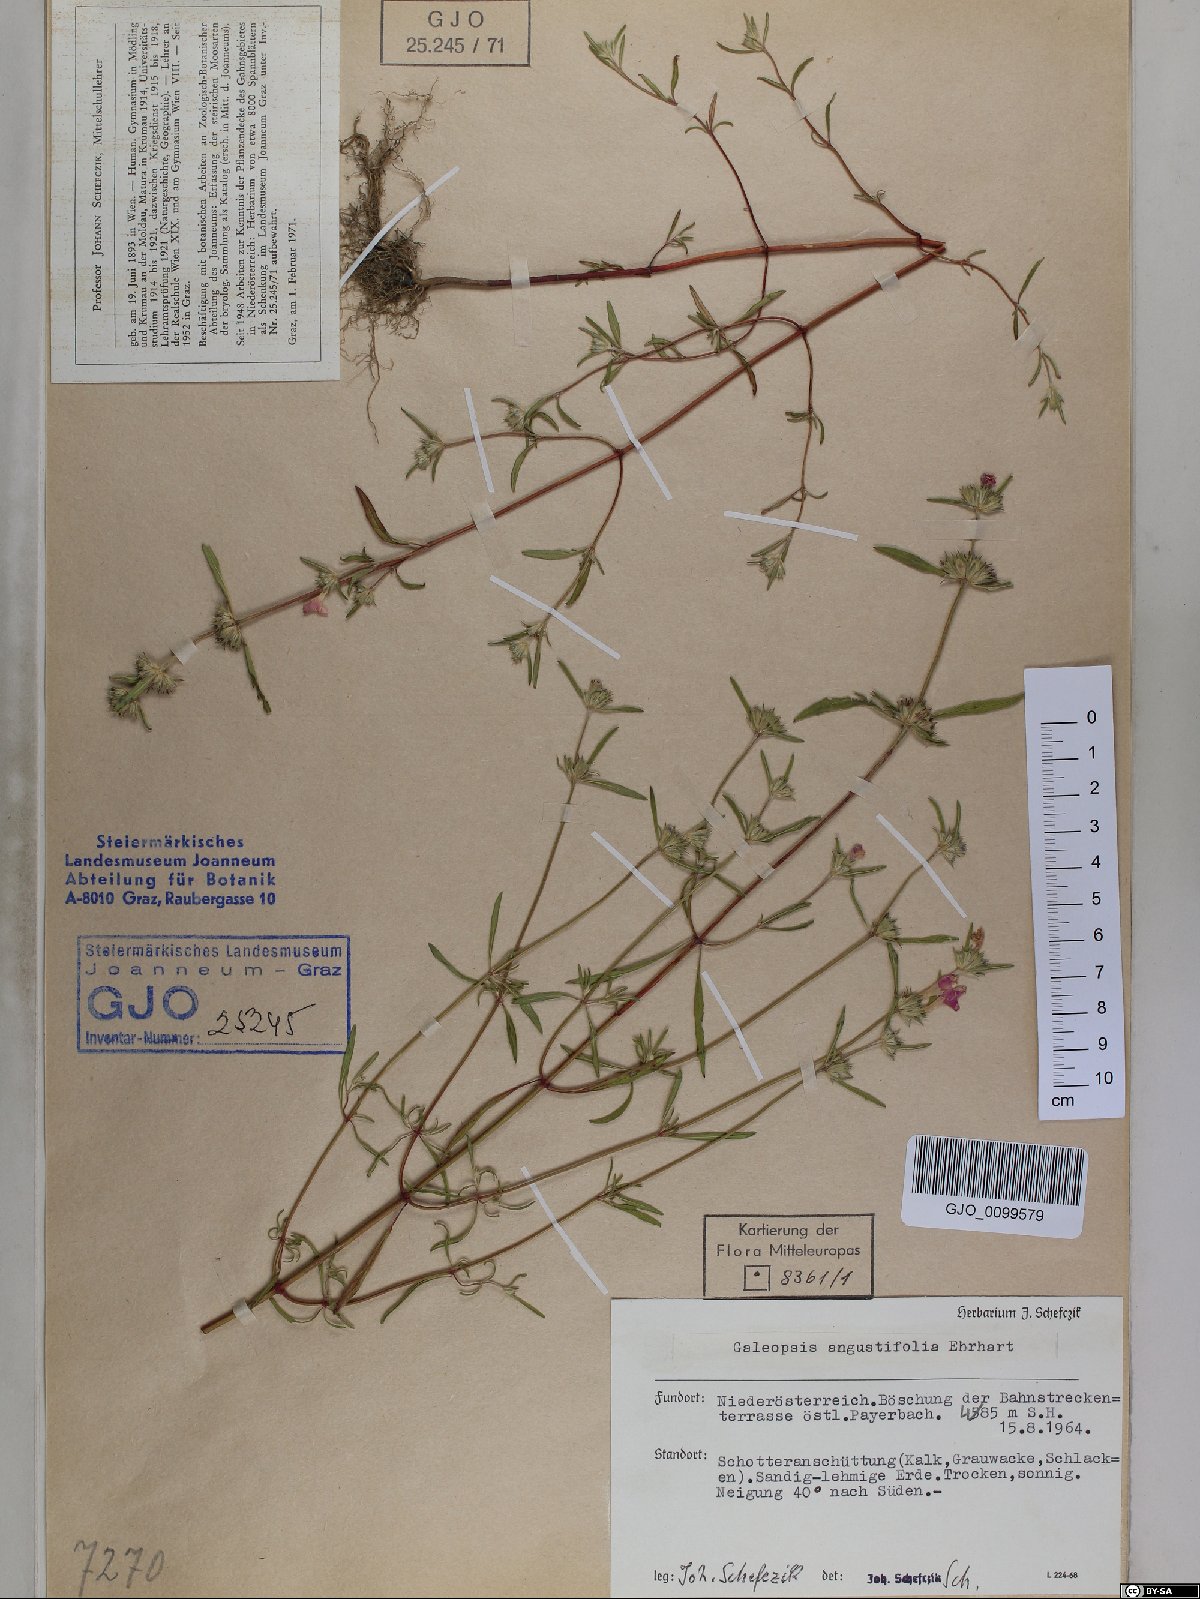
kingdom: Plantae
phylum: Tracheophyta
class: Magnoliopsida
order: Lamiales
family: Lamiaceae
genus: Galeopsis
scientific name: Galeopsis angustifolia
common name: Red hemp-nettle
